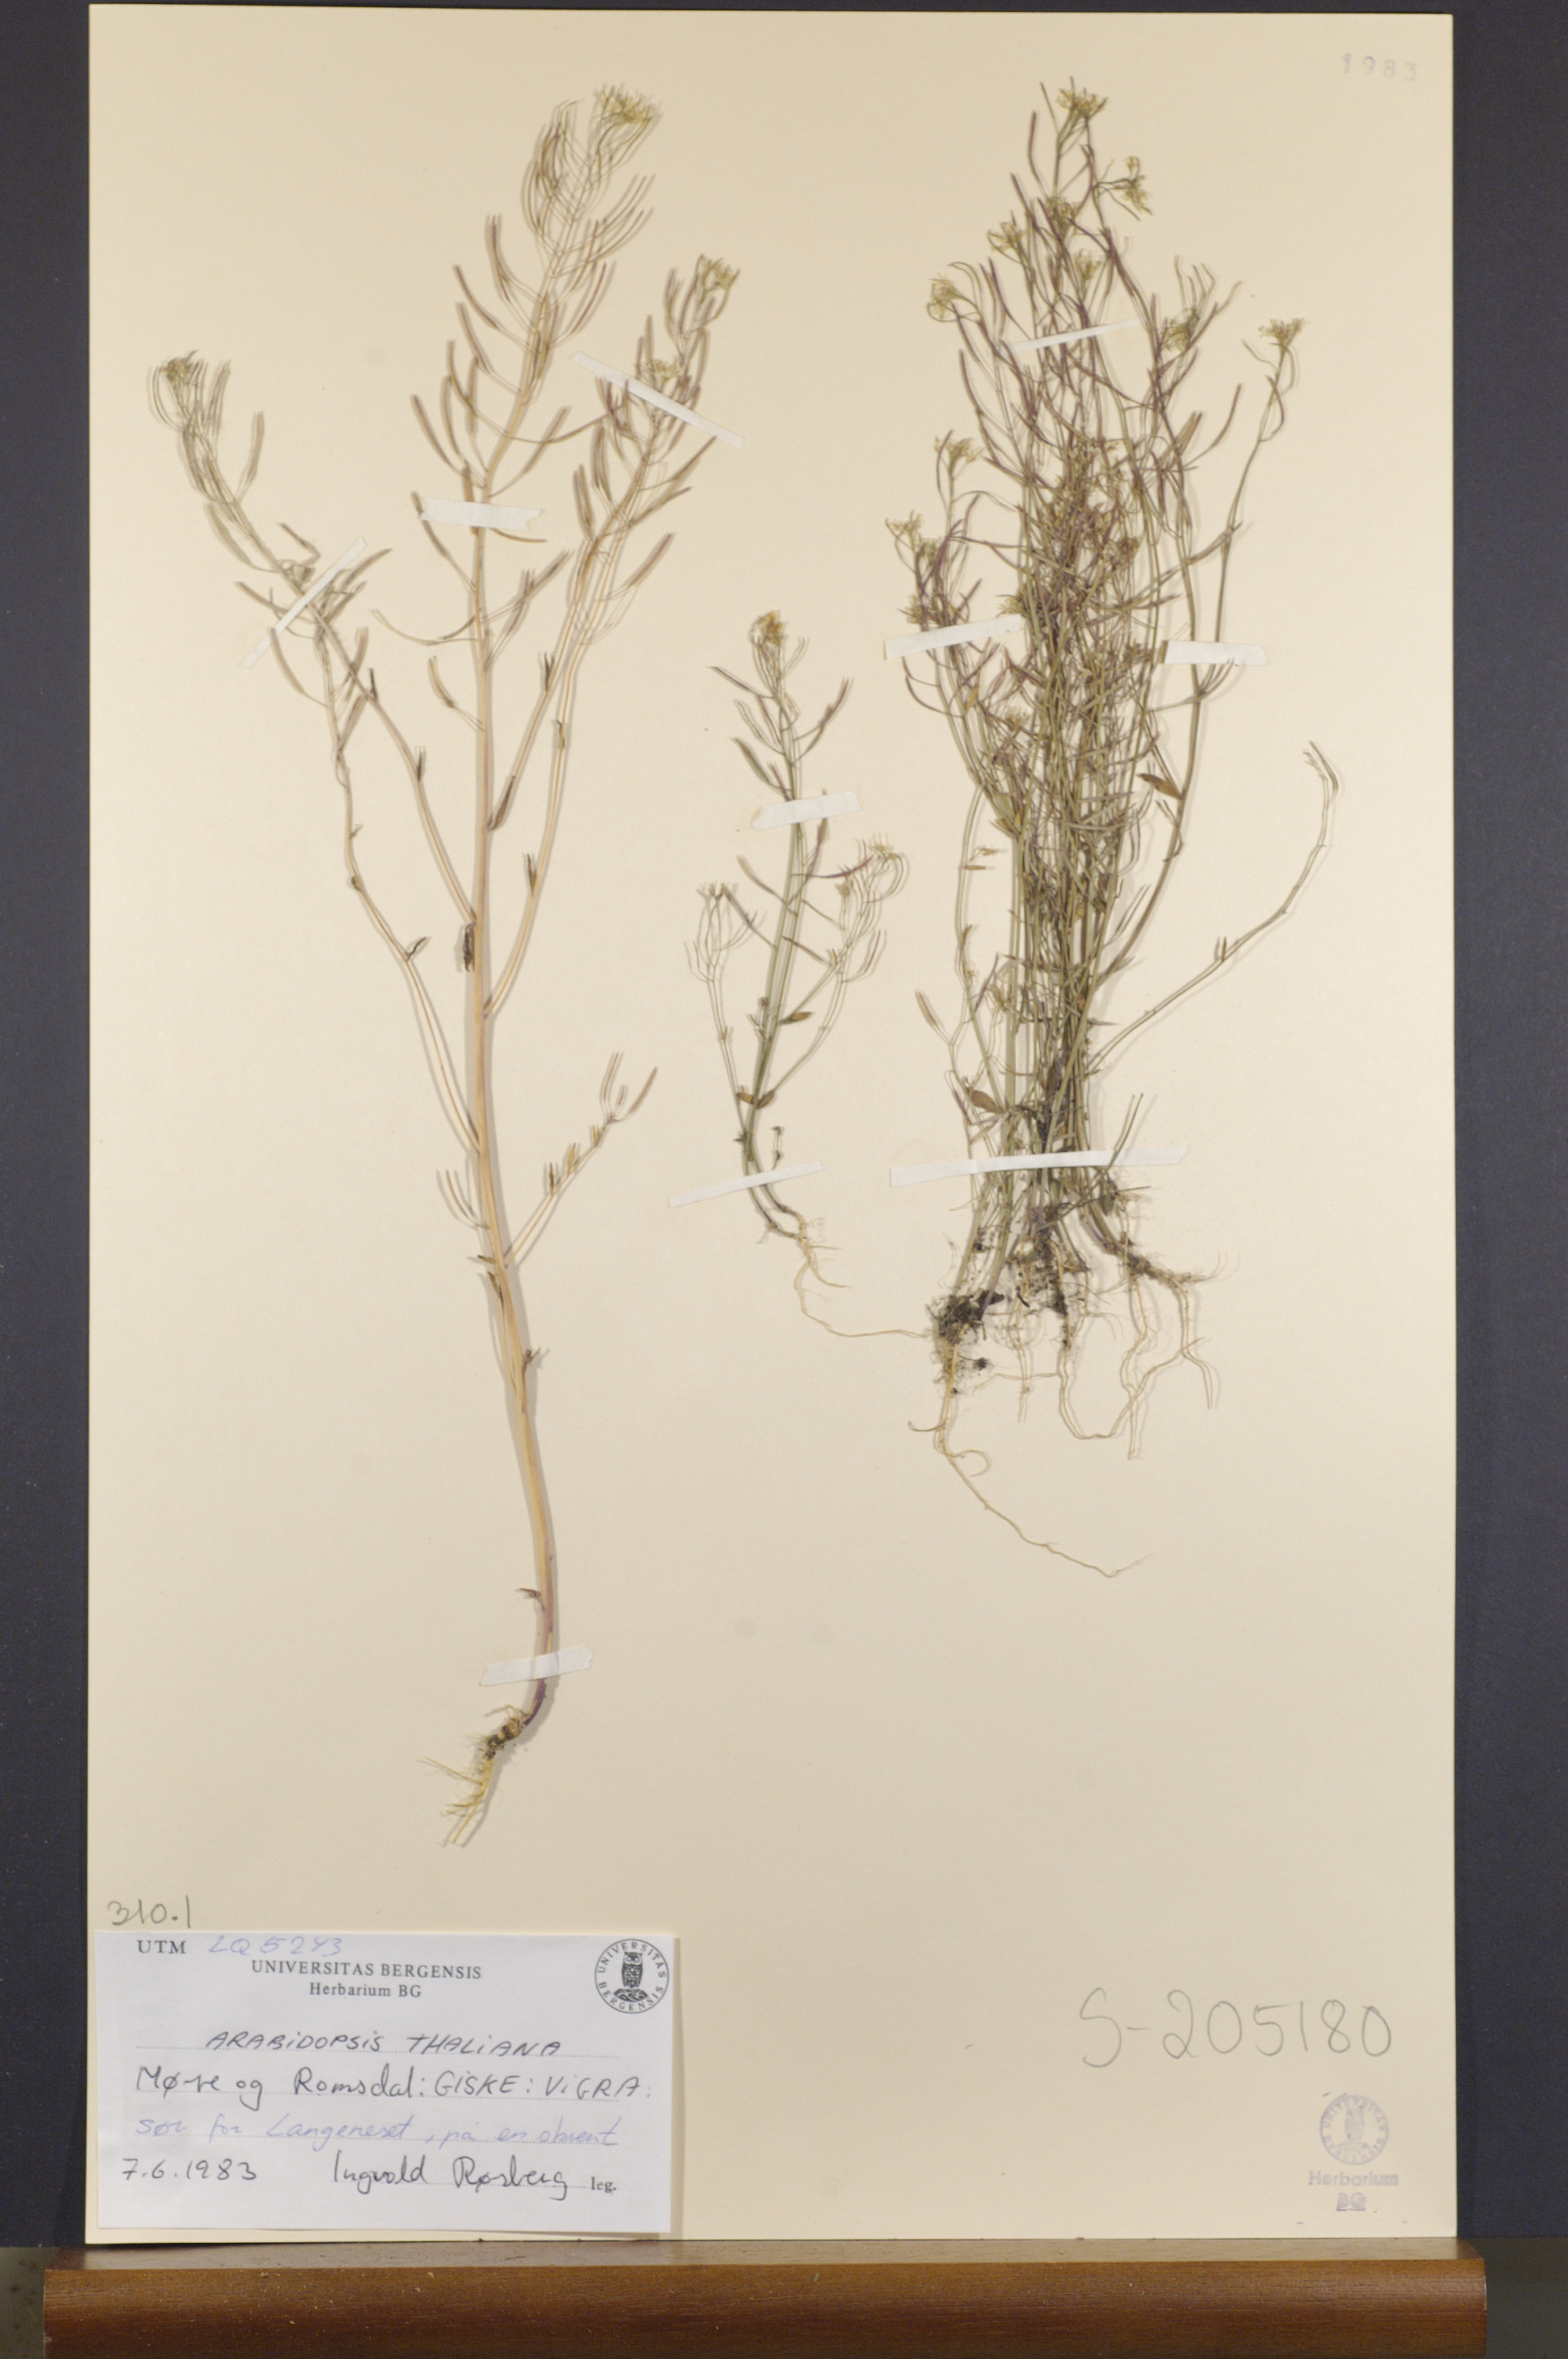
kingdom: Plantae
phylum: Tracheophyta
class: Magnoliopsida
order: Brassicales
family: Brassicaceae
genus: Arabidopsis
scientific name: Arabidopsis thaliana
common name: Thale cress
